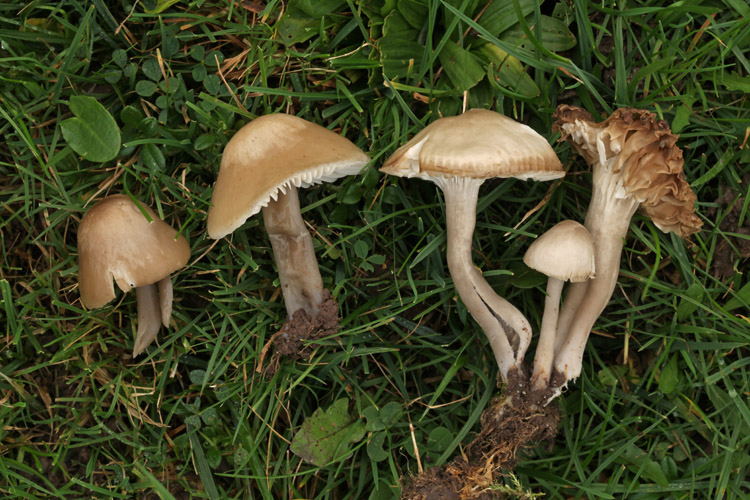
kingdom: Fungi
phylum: Basidiomycota
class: Agaricomycetes
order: Agaricales
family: Hygrophoraceae
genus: Gliophorus
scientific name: Gliophorus irrigatus
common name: slimet vokshat
